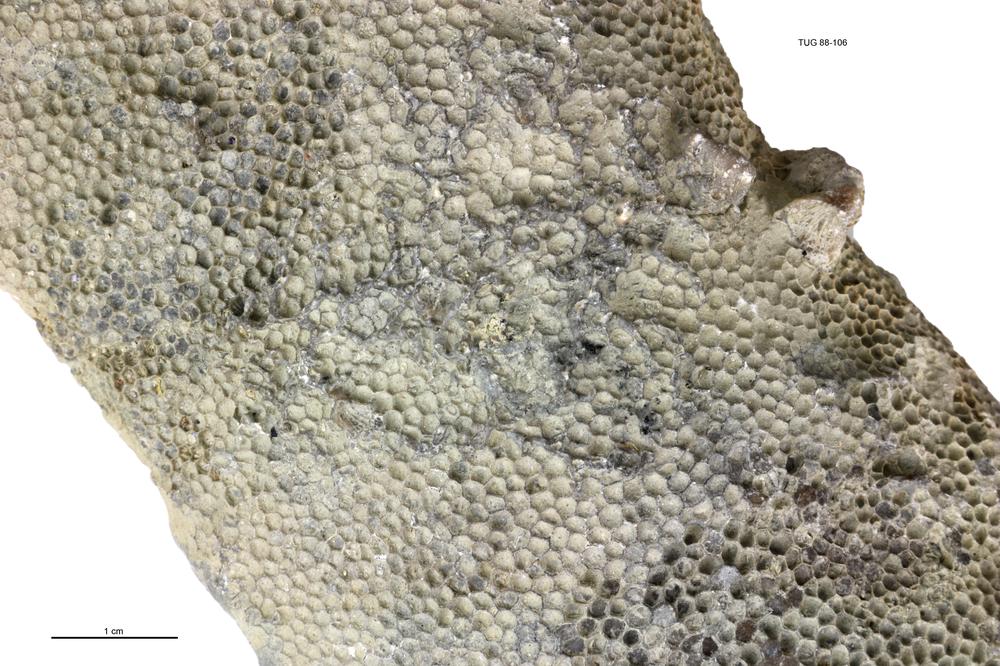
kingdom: Animalia
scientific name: Animalia
